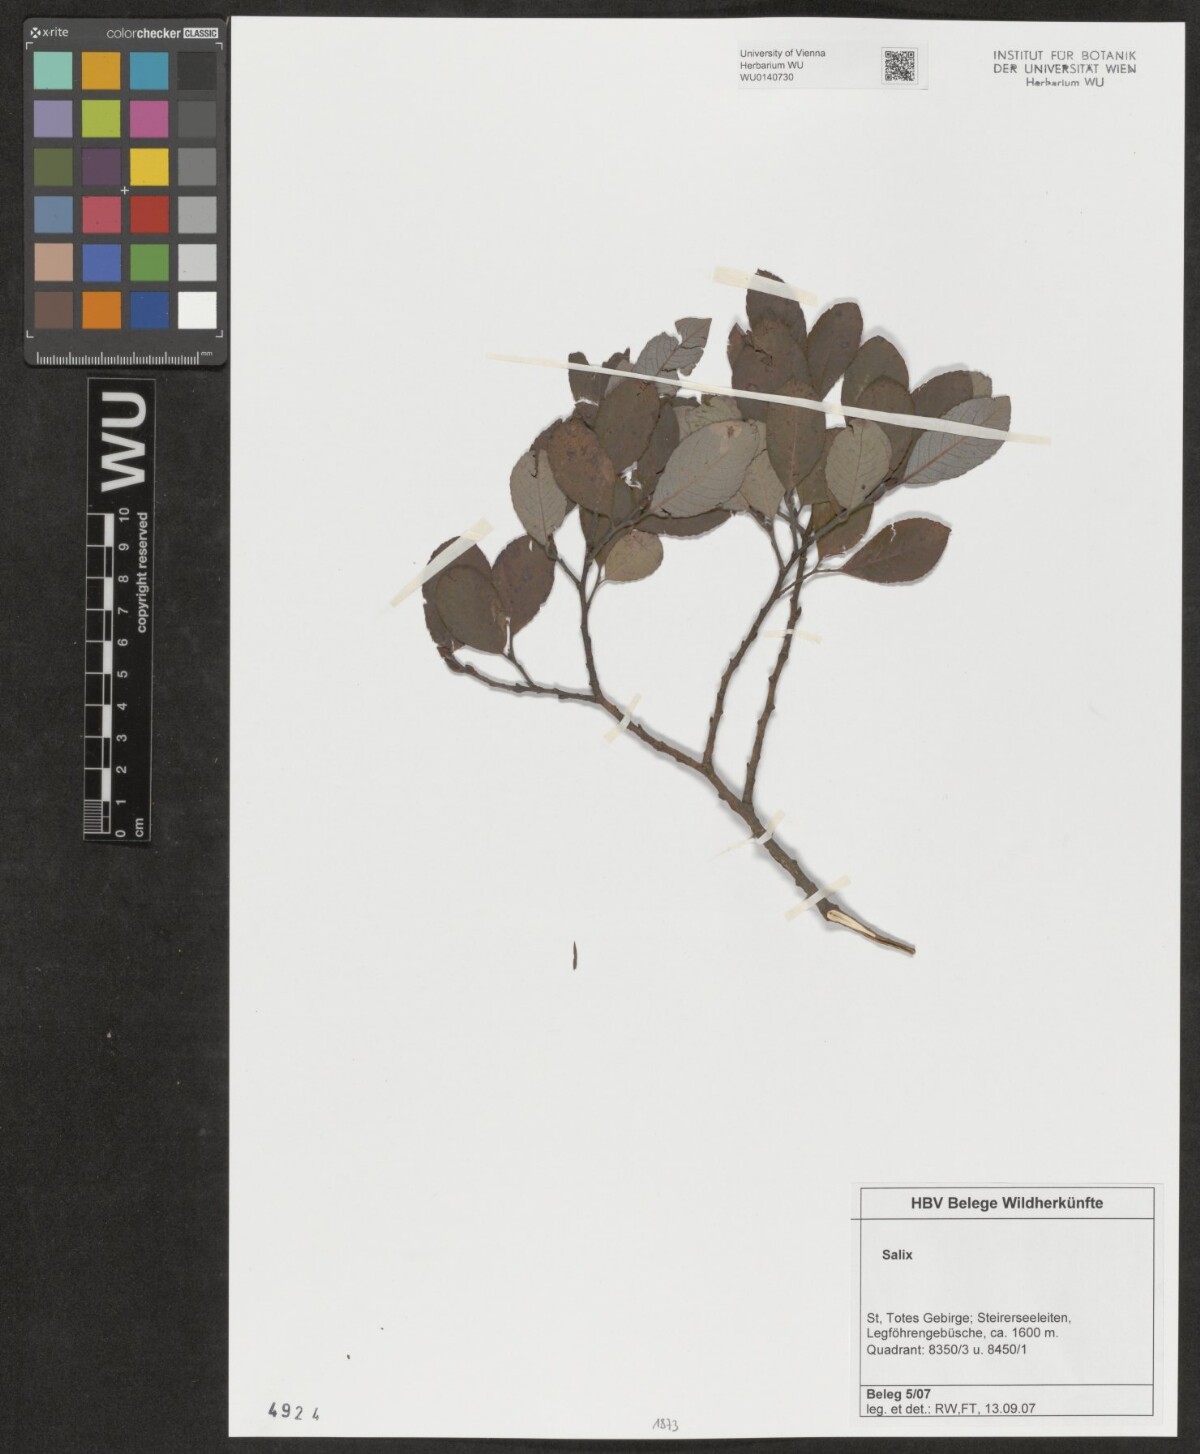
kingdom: Plantae
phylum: Tracheophyta
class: Magnoliopsida
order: Malpighiales
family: Salicaceae
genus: Salix
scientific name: Salix
